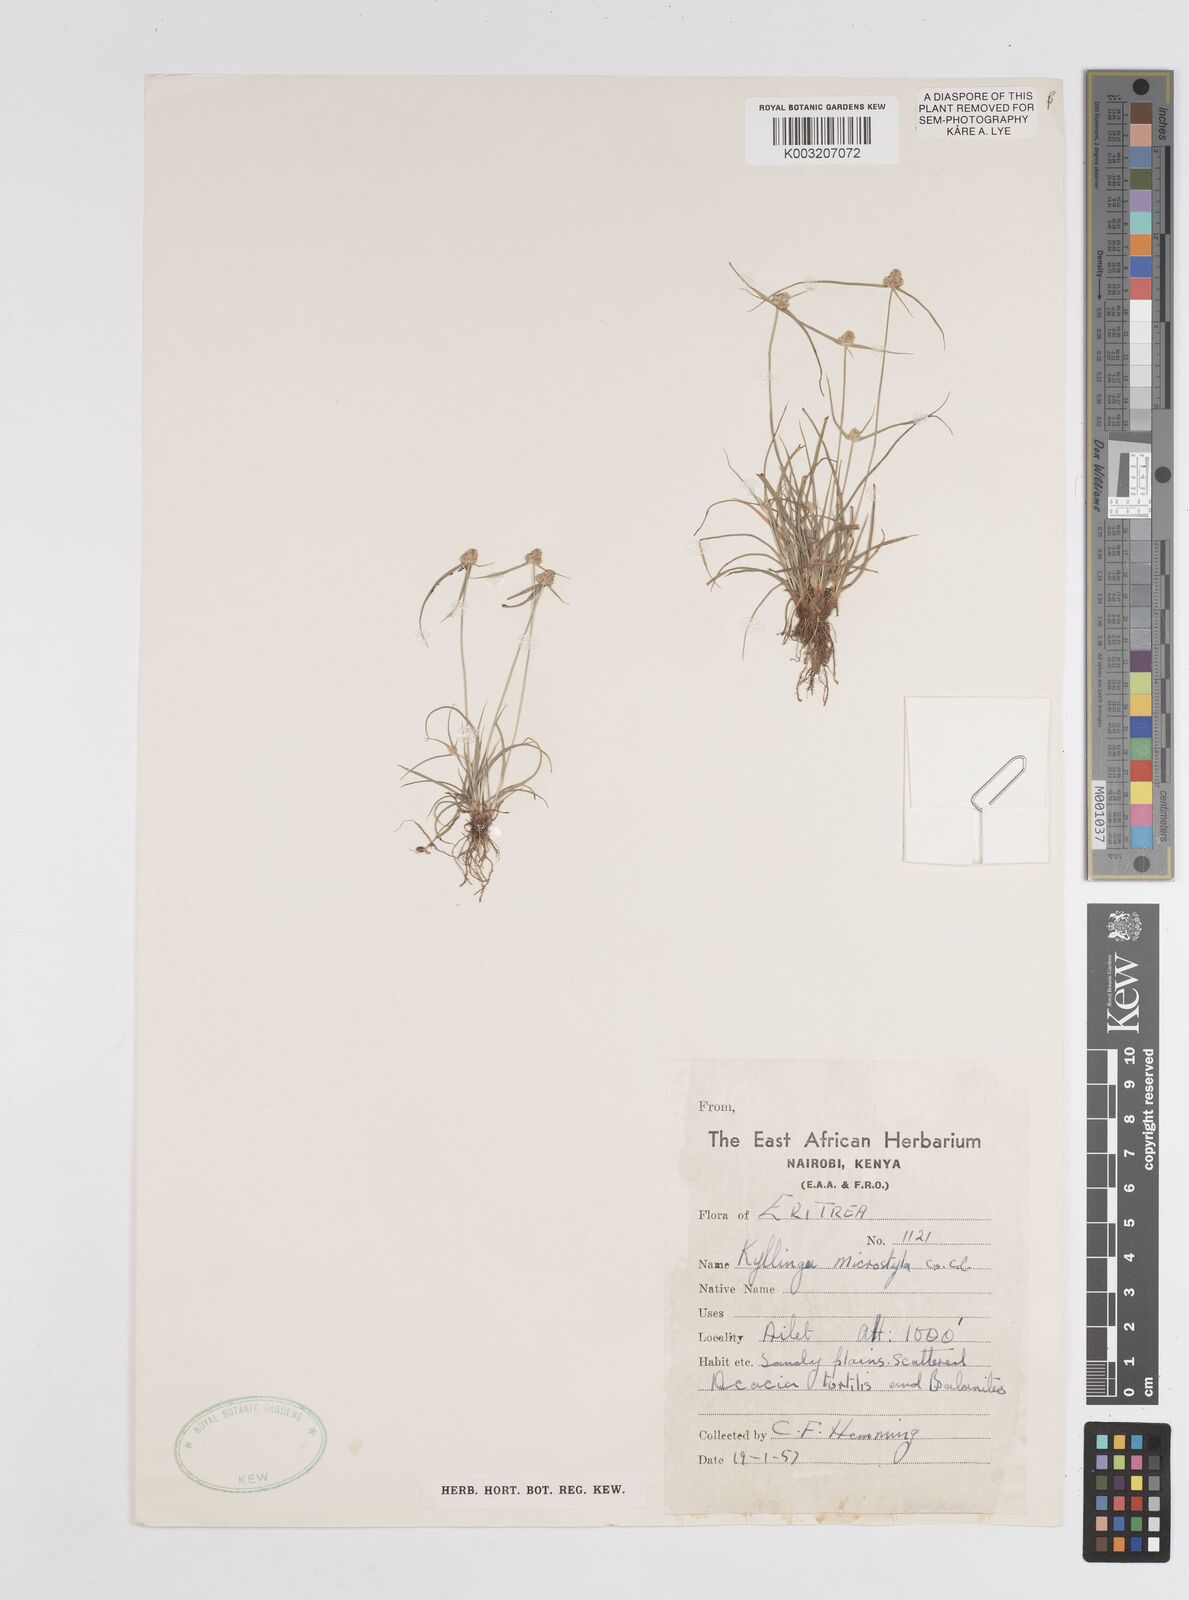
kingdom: Plantae
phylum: Tracheophyta
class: Liliopsida
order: Poales
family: Cyperaceae
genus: Cyperus
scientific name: Cyperus microstylus
